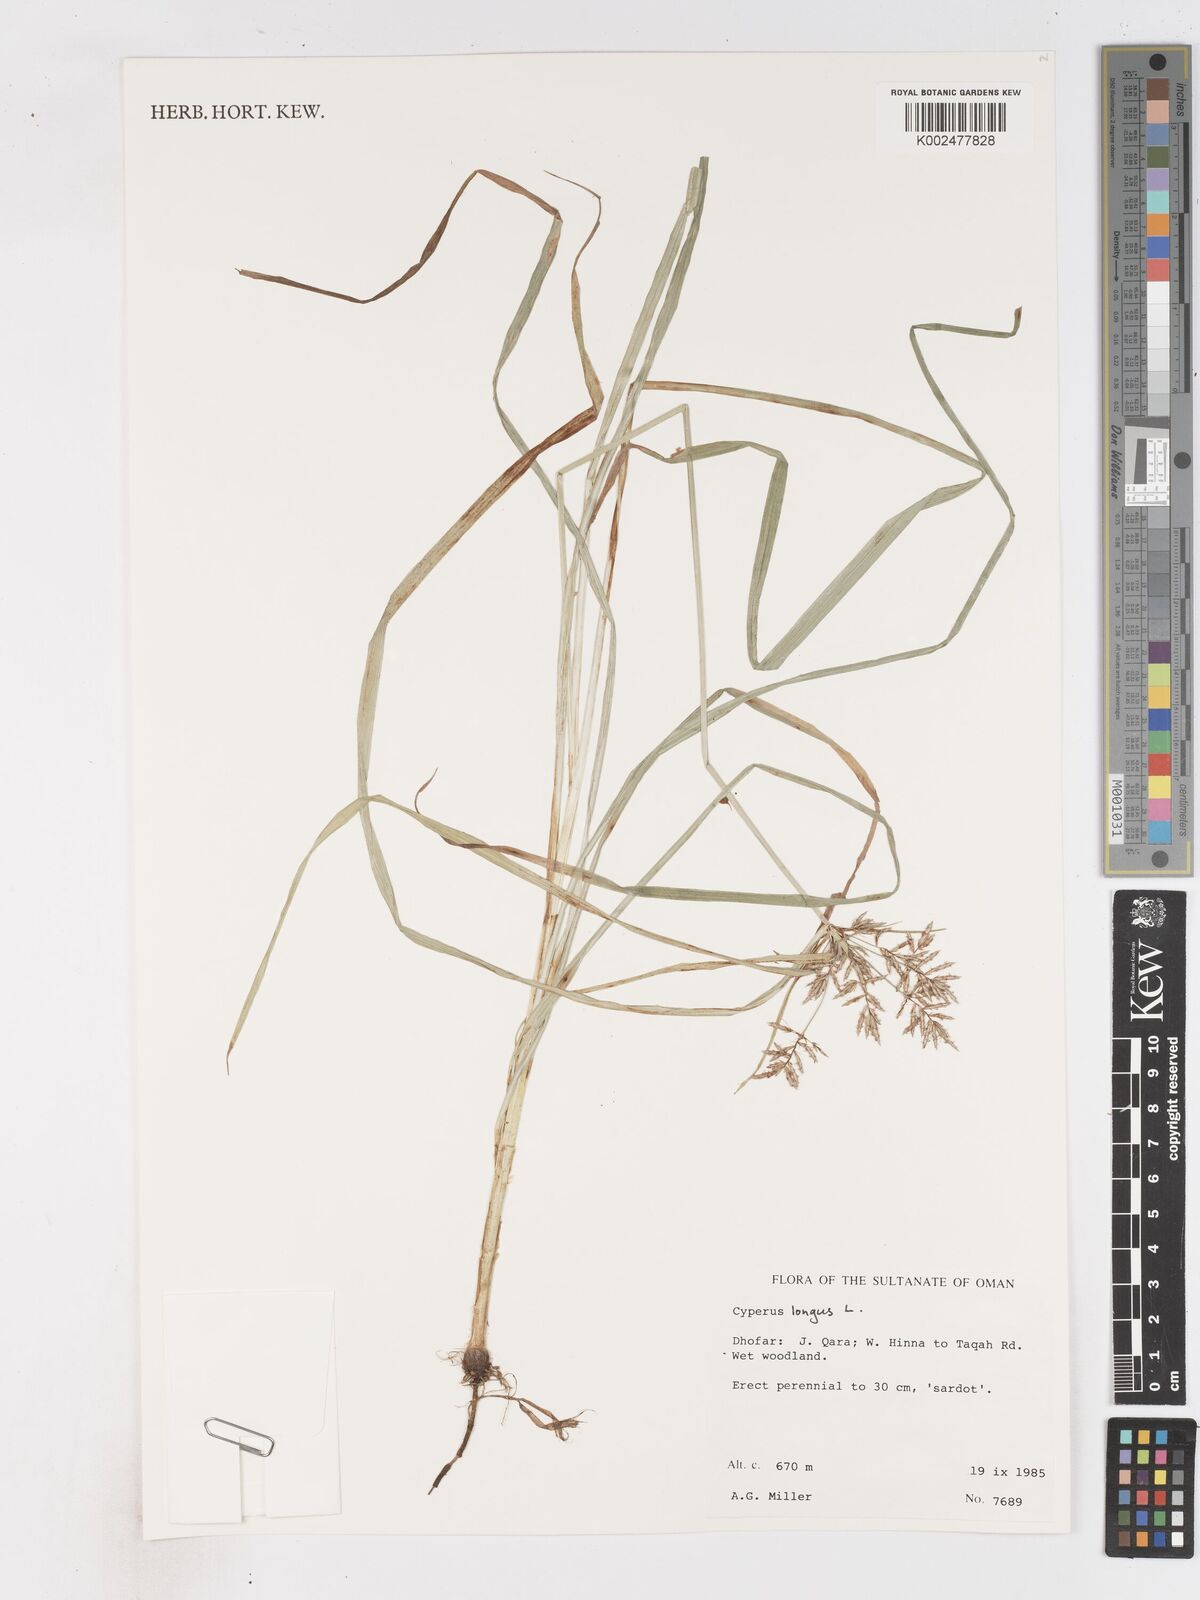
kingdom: Plantae
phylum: Tracheophyta
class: Liliopsida
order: Poales
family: Cyperaceae
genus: Cyperus
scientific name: Cyperus longus
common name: Galingale
